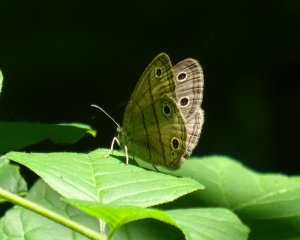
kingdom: Animalia
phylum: Arthropoda
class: Insecta
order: Lepidoptera
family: Nymphalidae
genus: Euptychia
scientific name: Euptychia cymela
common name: Little Wood Satyr
